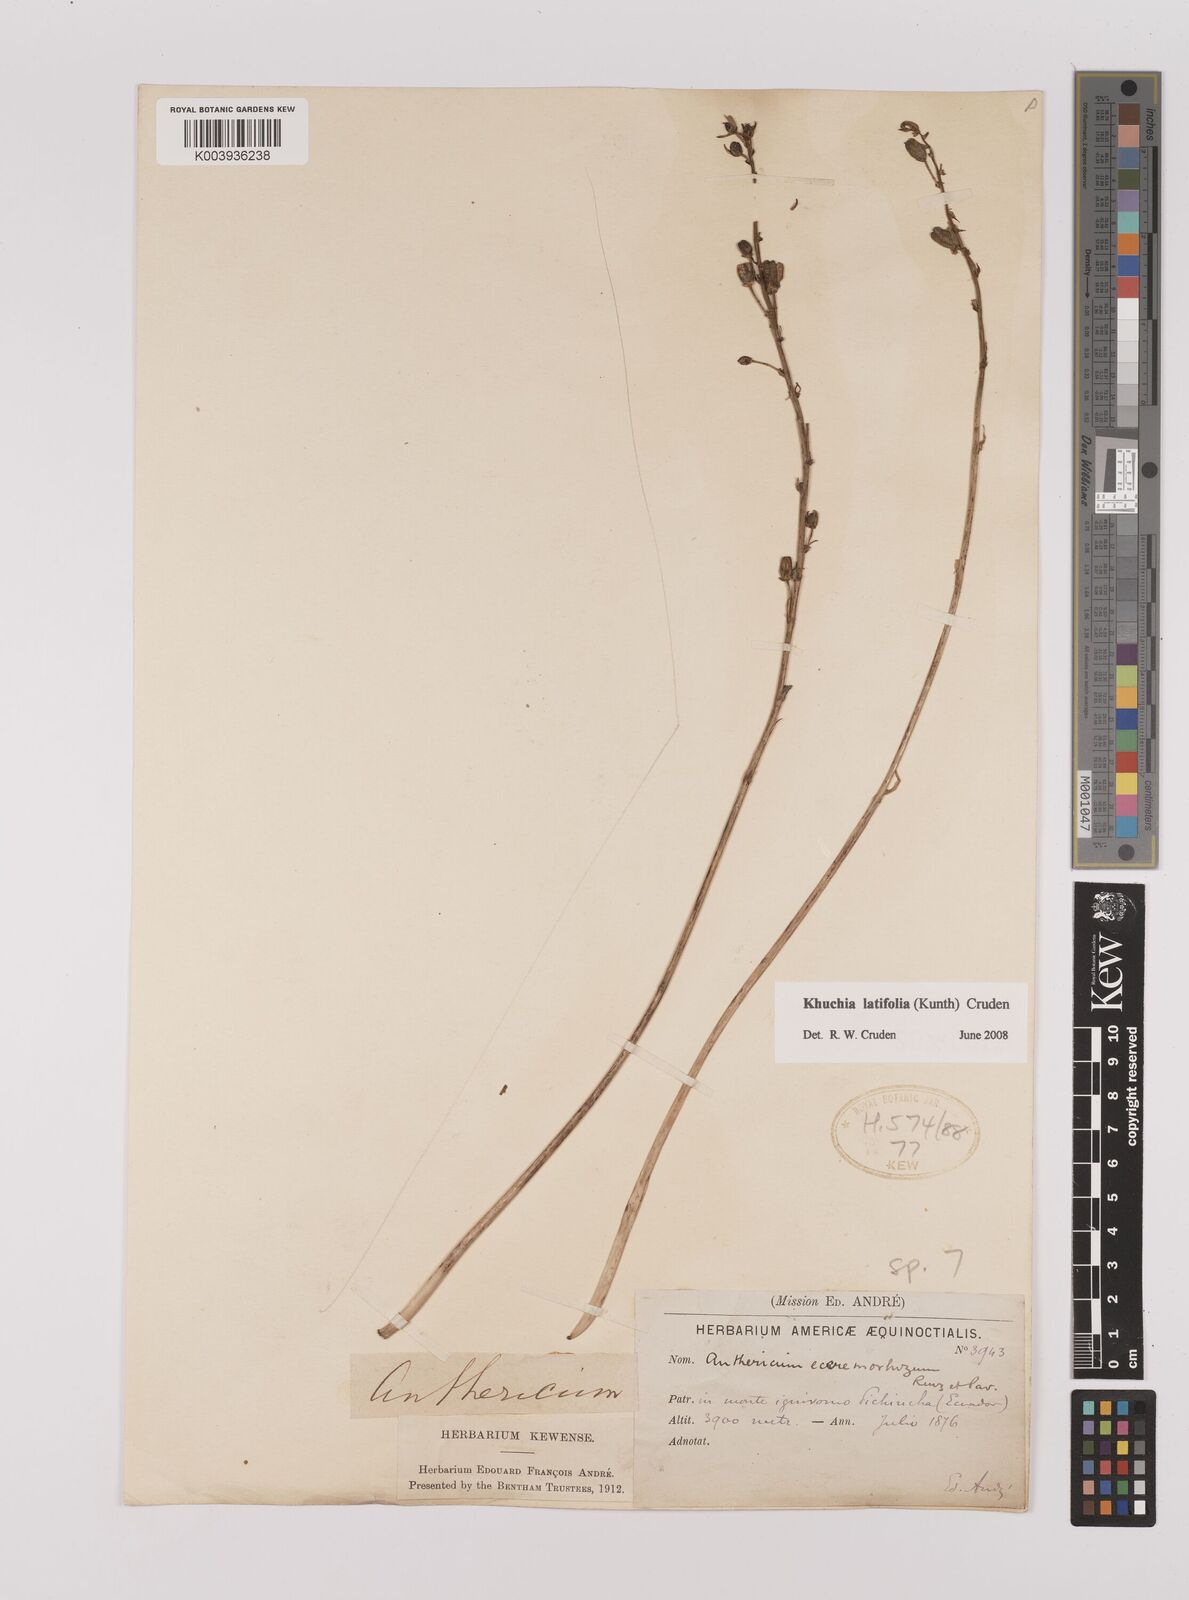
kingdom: Plantae
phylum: Tracheophyta
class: Liliopsida
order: Asparagales
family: Asparagaceae
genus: Echeandia
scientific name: Echeandia
